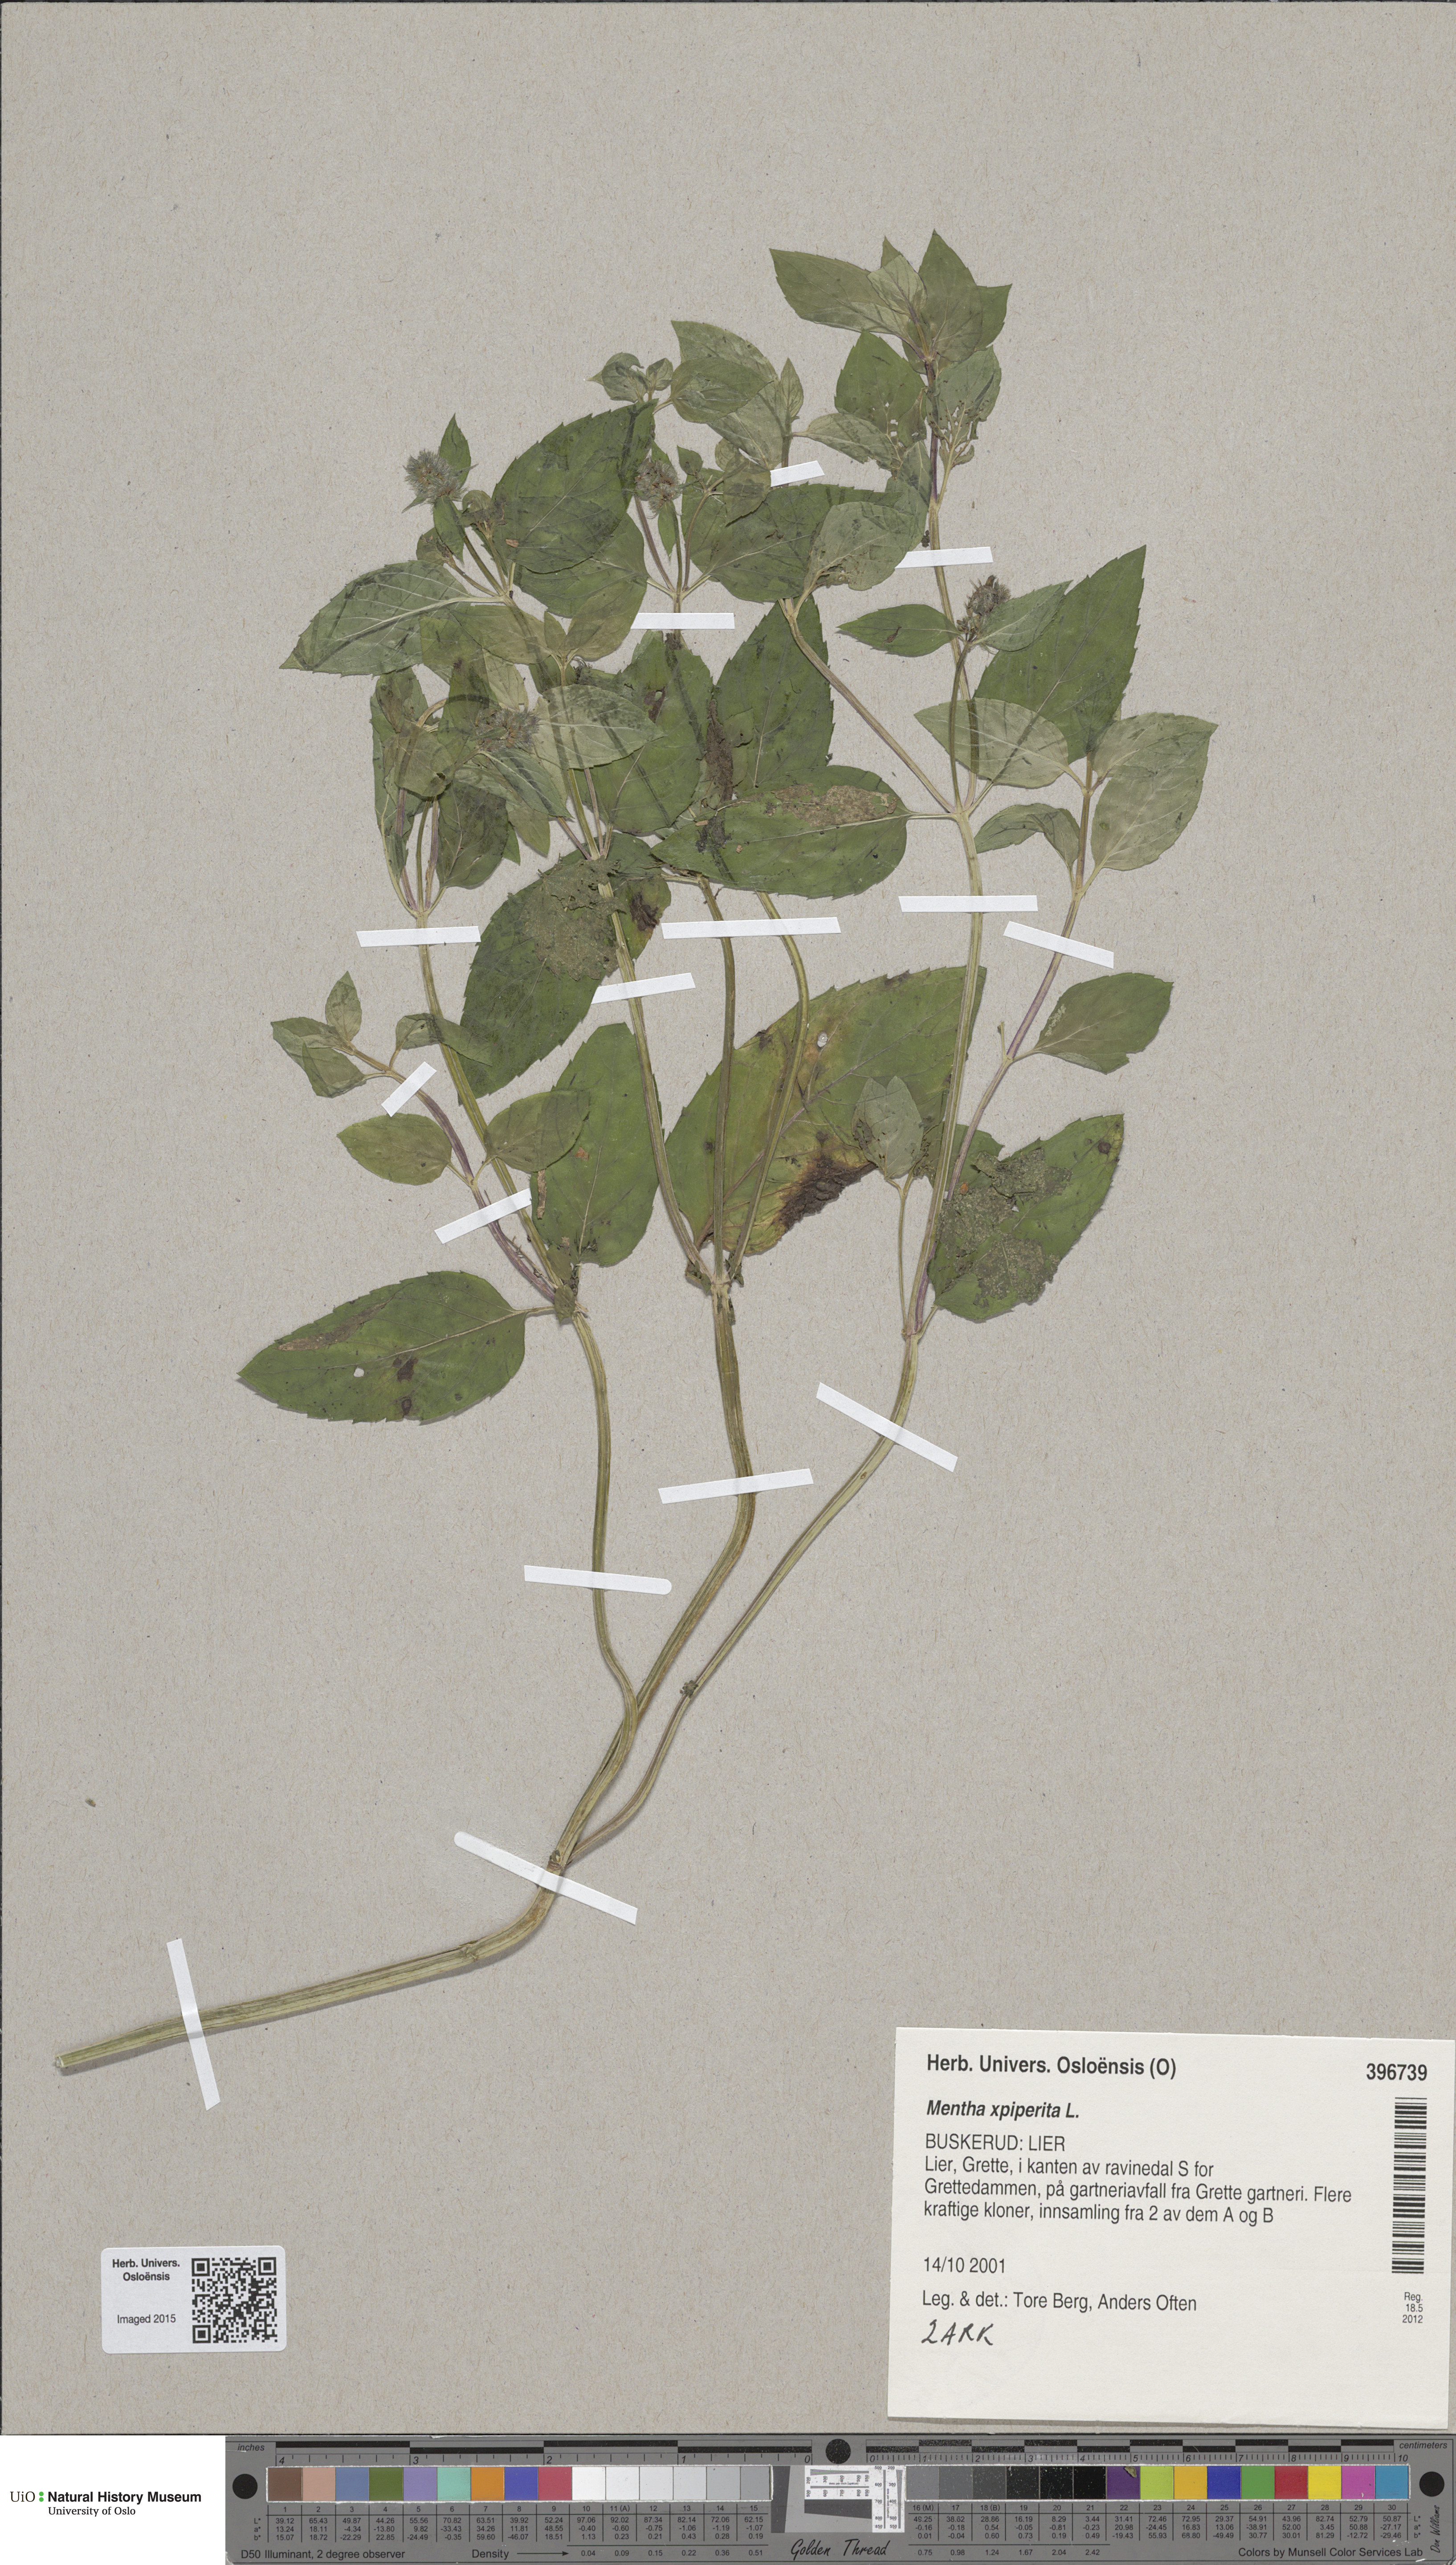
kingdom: Plantae
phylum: Tracheophyta
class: Magnoliopsida
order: Lamiales
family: Lamiaceae
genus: Mentha
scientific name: Mentha piperita
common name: Peppermint
